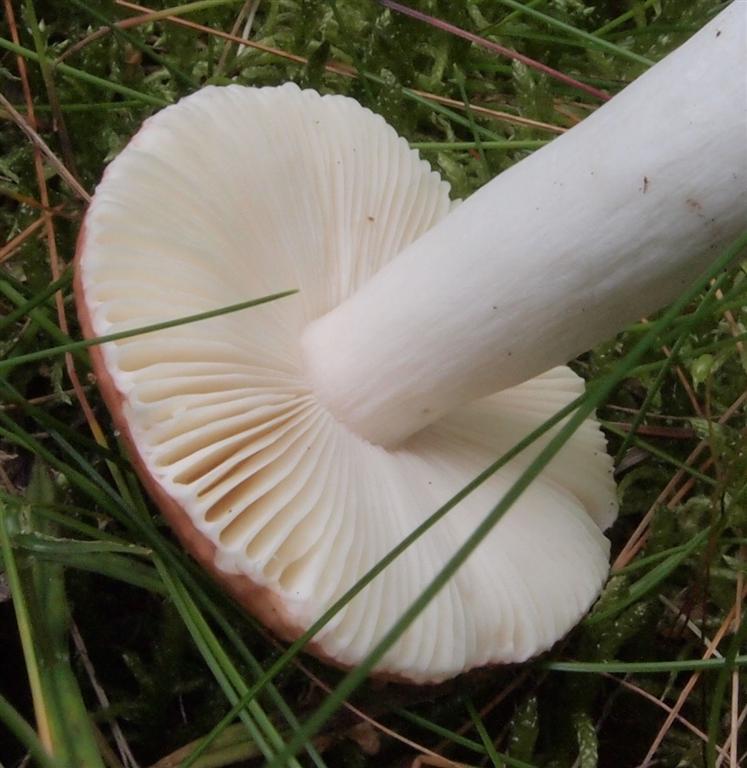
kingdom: Fungi
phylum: Basidiomycota
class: Agaricomycetes
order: Russulales
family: Russulaceae
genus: Russula
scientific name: Russula
